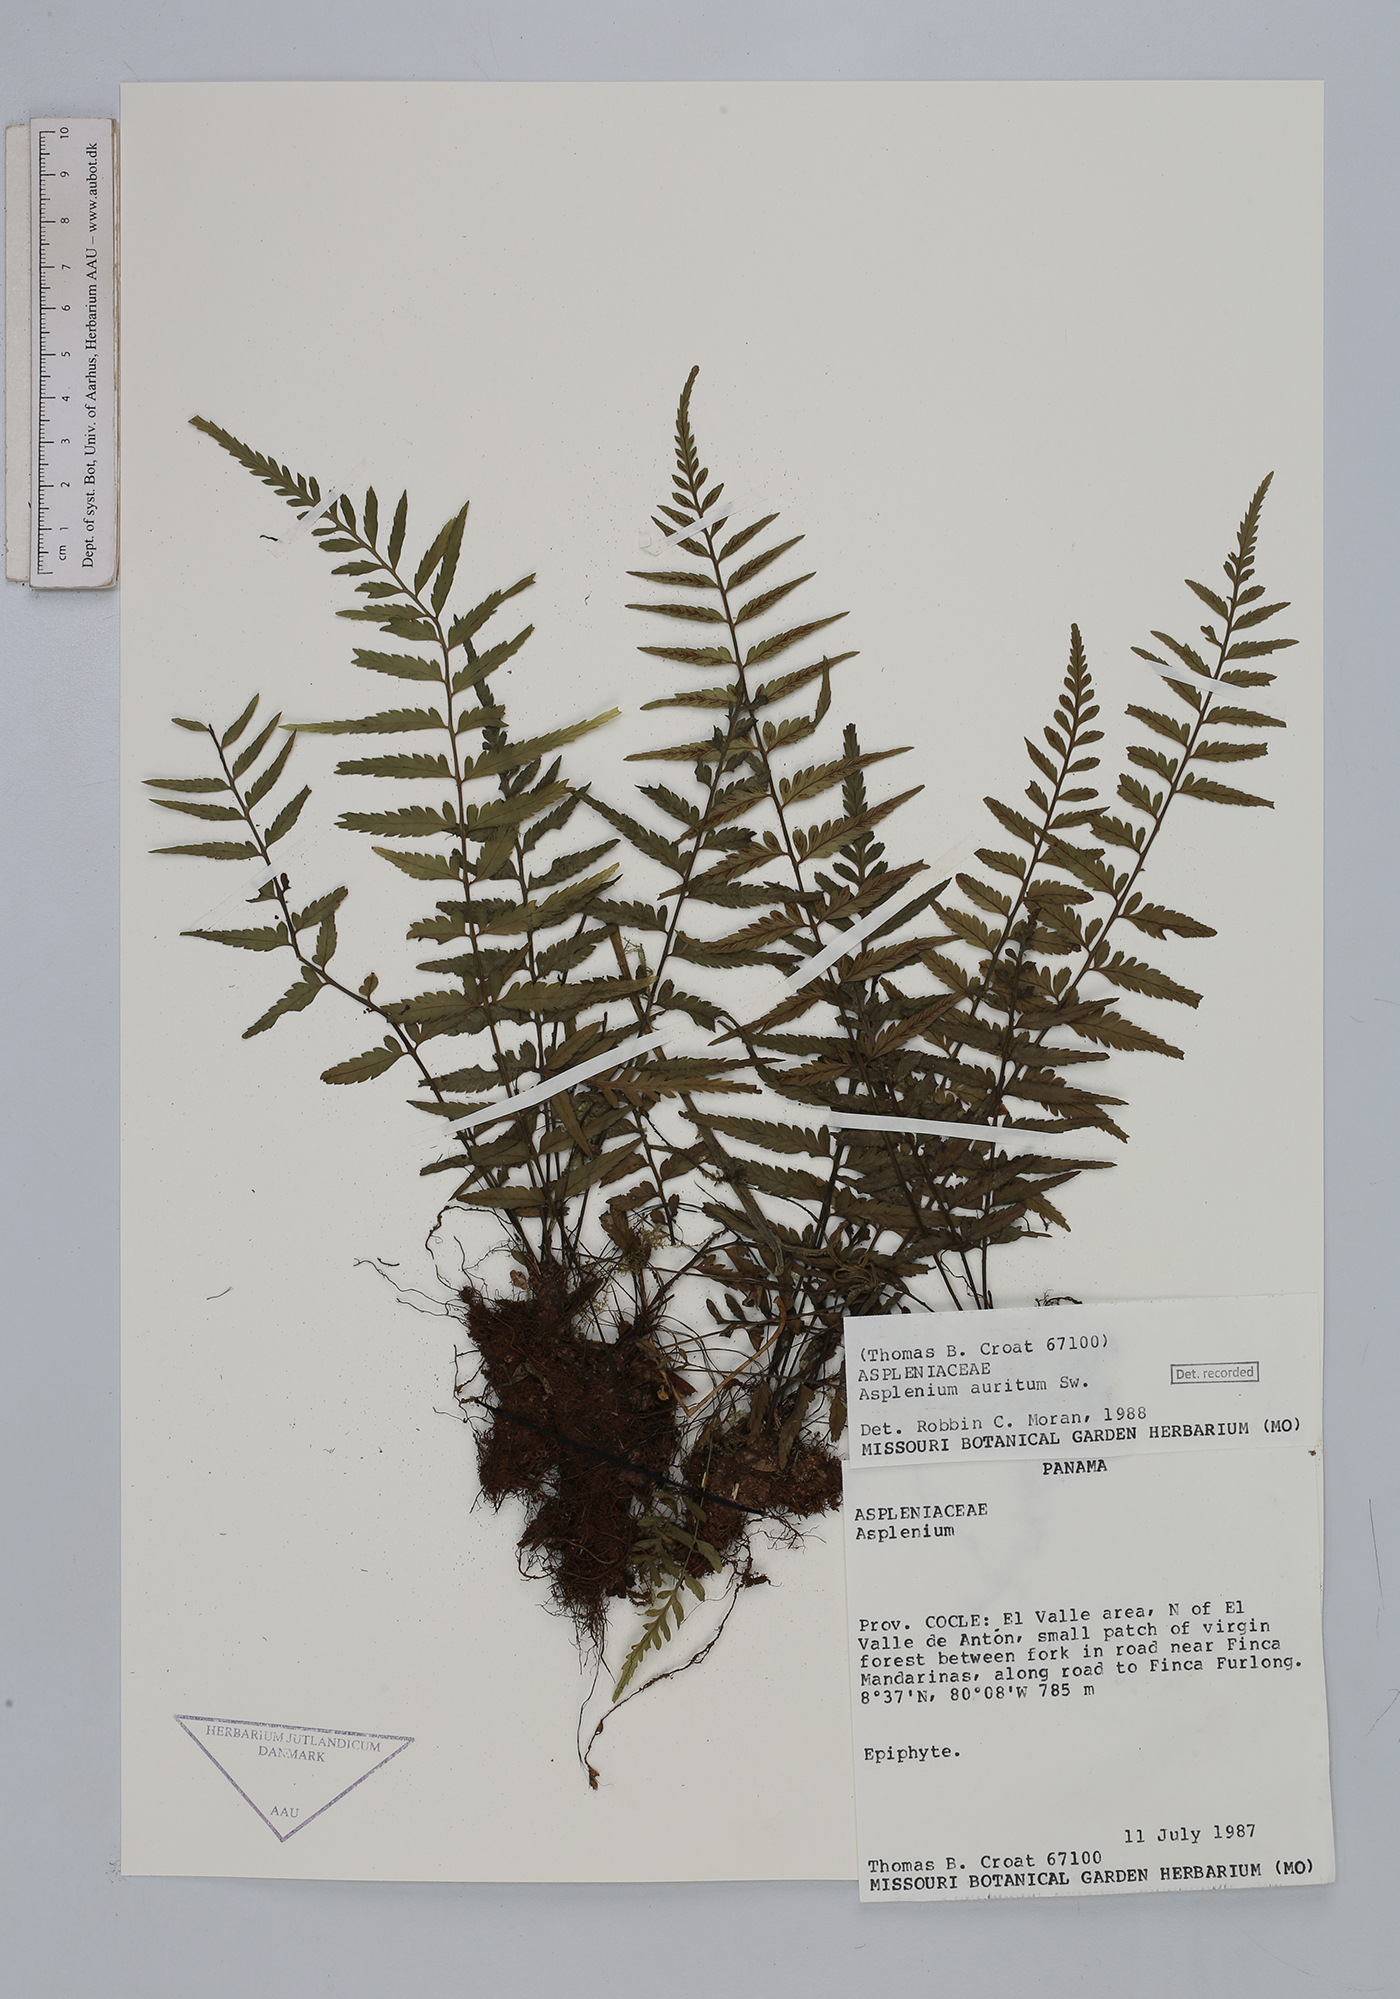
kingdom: Plantae
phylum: Tracheophyta
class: Polypodiopsida
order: Polypodiales
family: Aspleniaceae
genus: Asplenium
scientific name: Asplenium auritum
